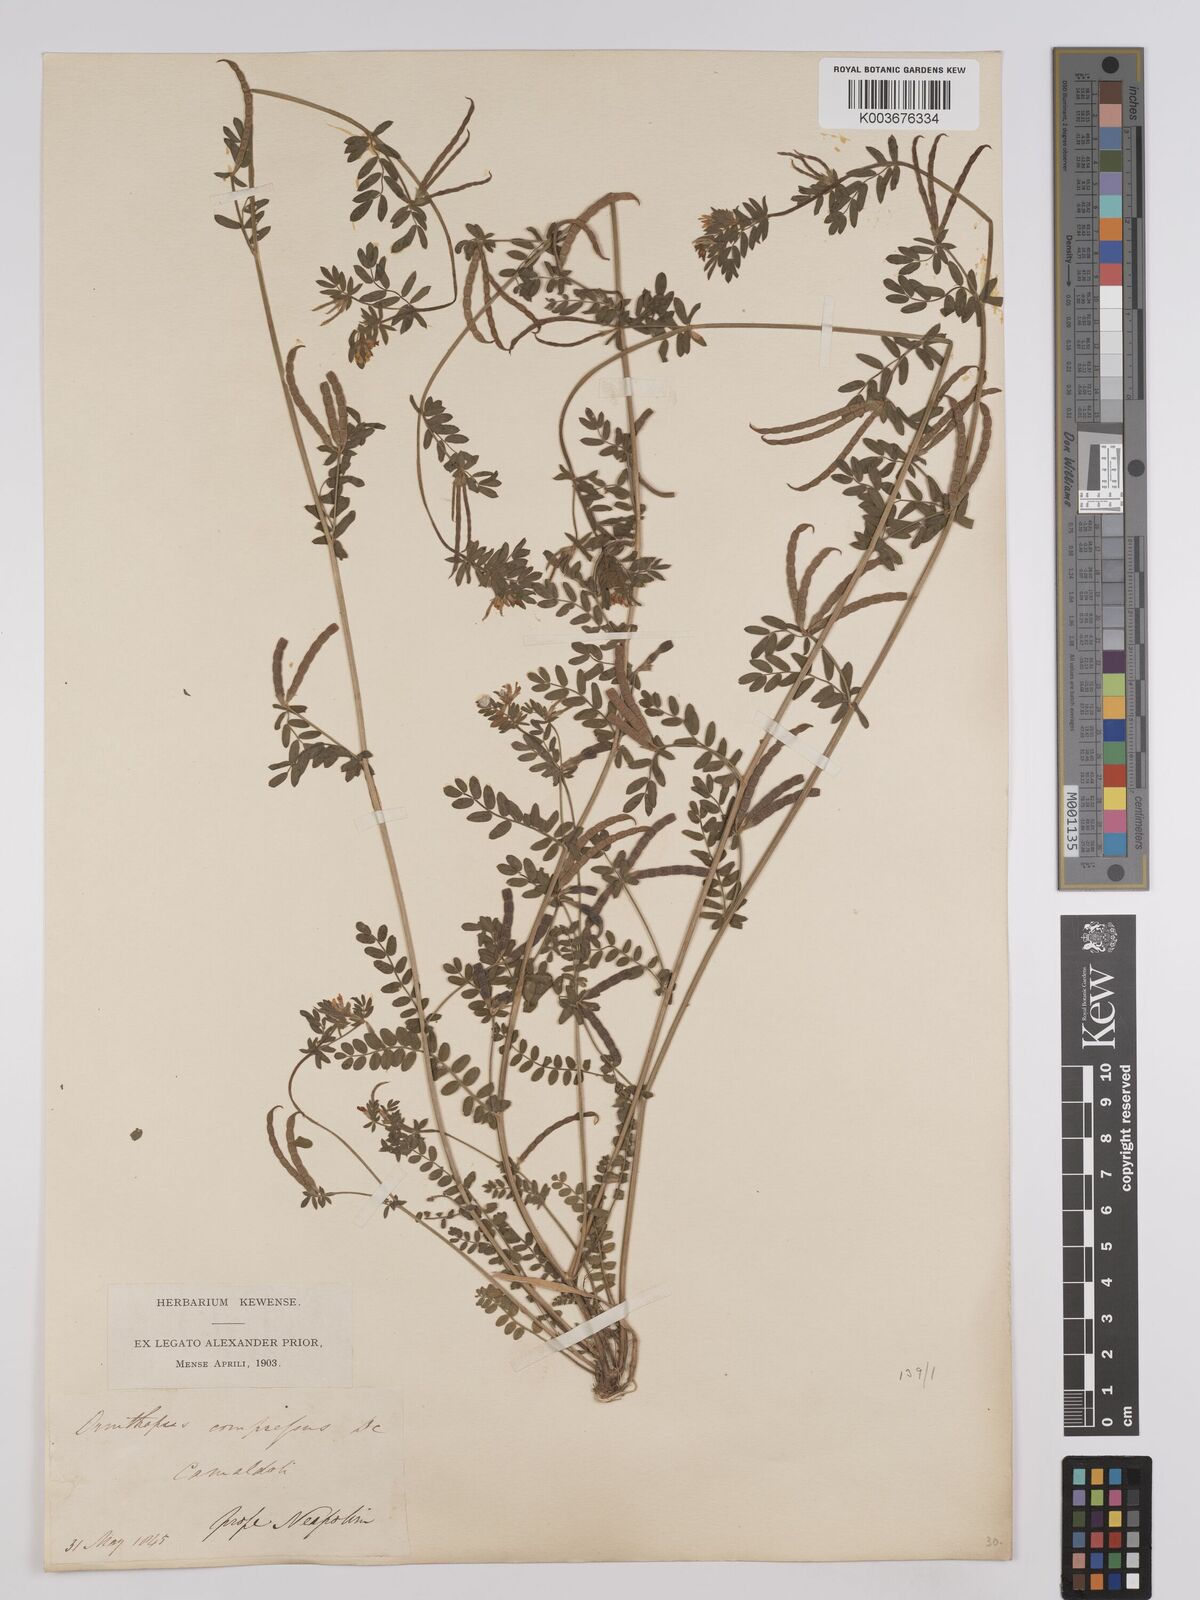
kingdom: Plantae
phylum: Tracheophyta
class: Magnoliopsida
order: Fabales
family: Fabaceae
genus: Ornithopus
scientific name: Ornithopus compressus
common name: Yellow serradella
